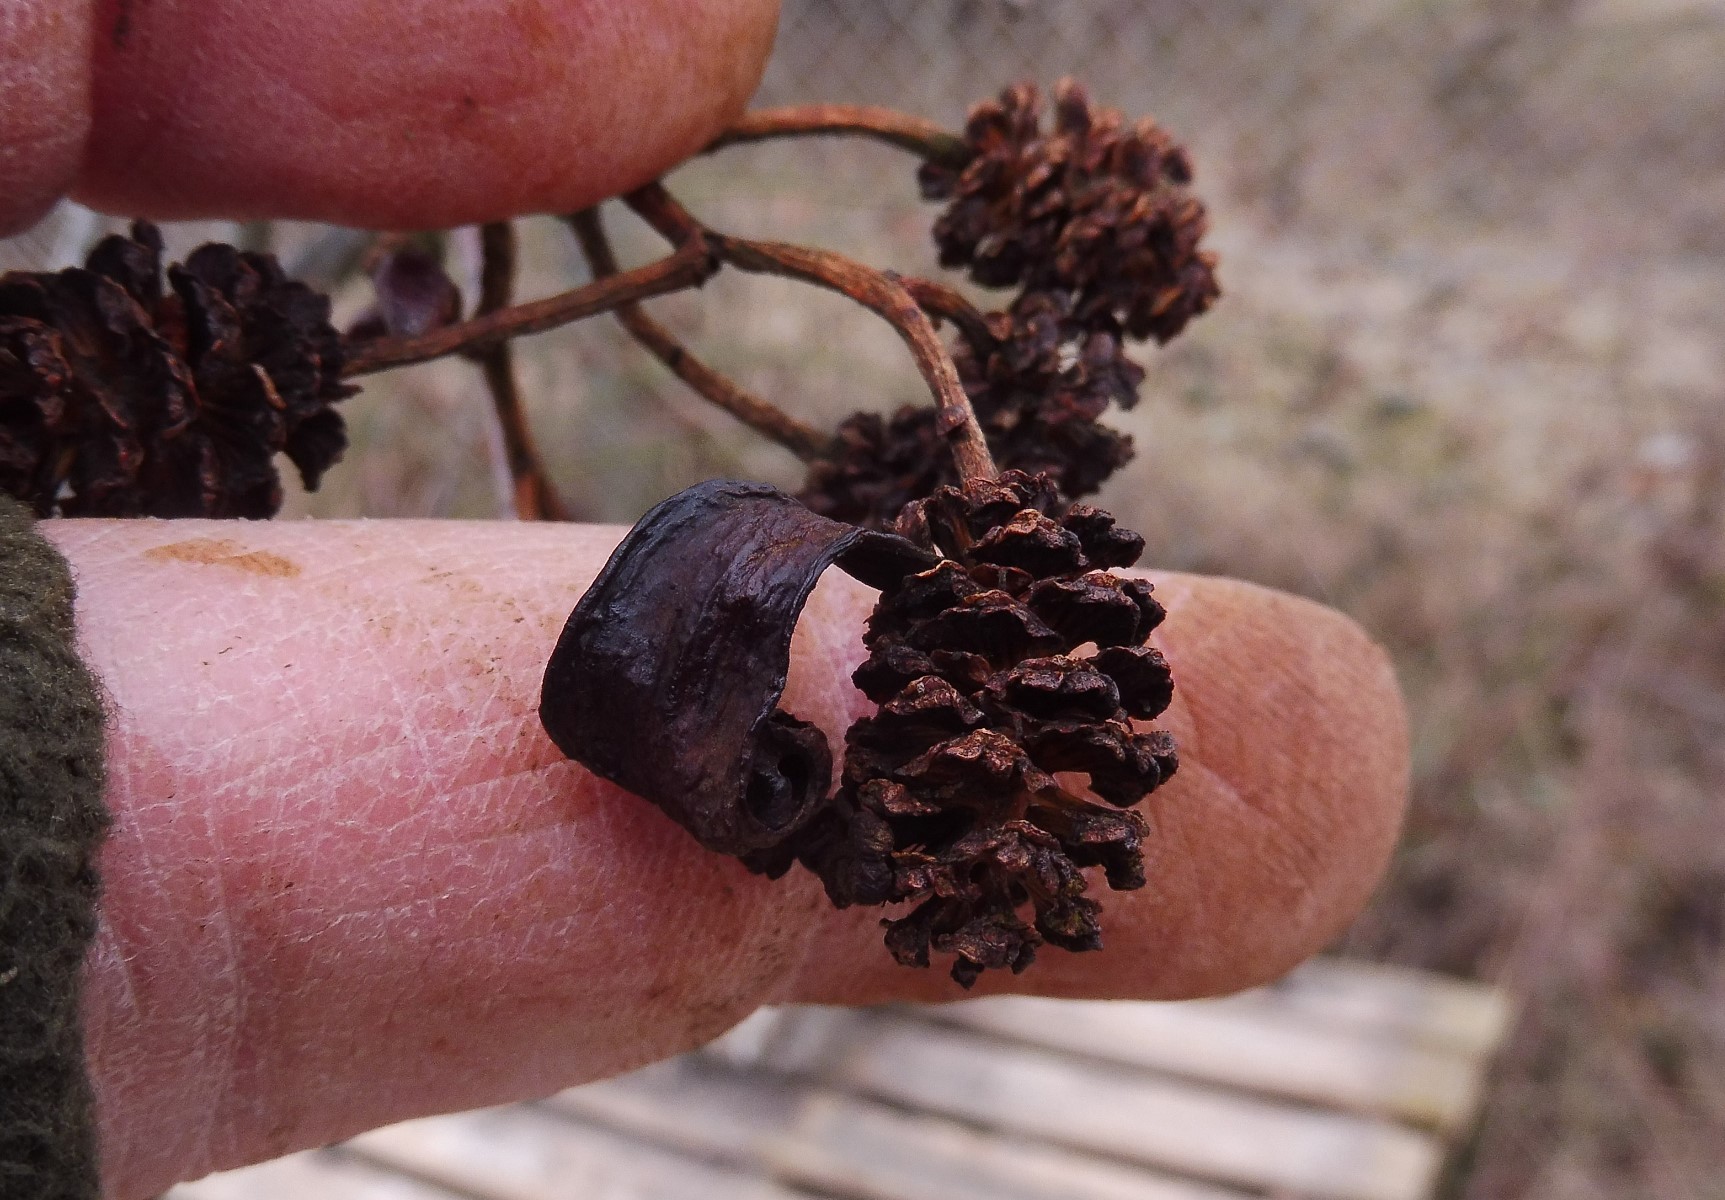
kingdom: Fungi
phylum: Ascomycota
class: Taphrinomycetes
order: Taphrinales
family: Taphrinaceae
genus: Taphrina
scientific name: Taphrina alni
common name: Alder tongue
